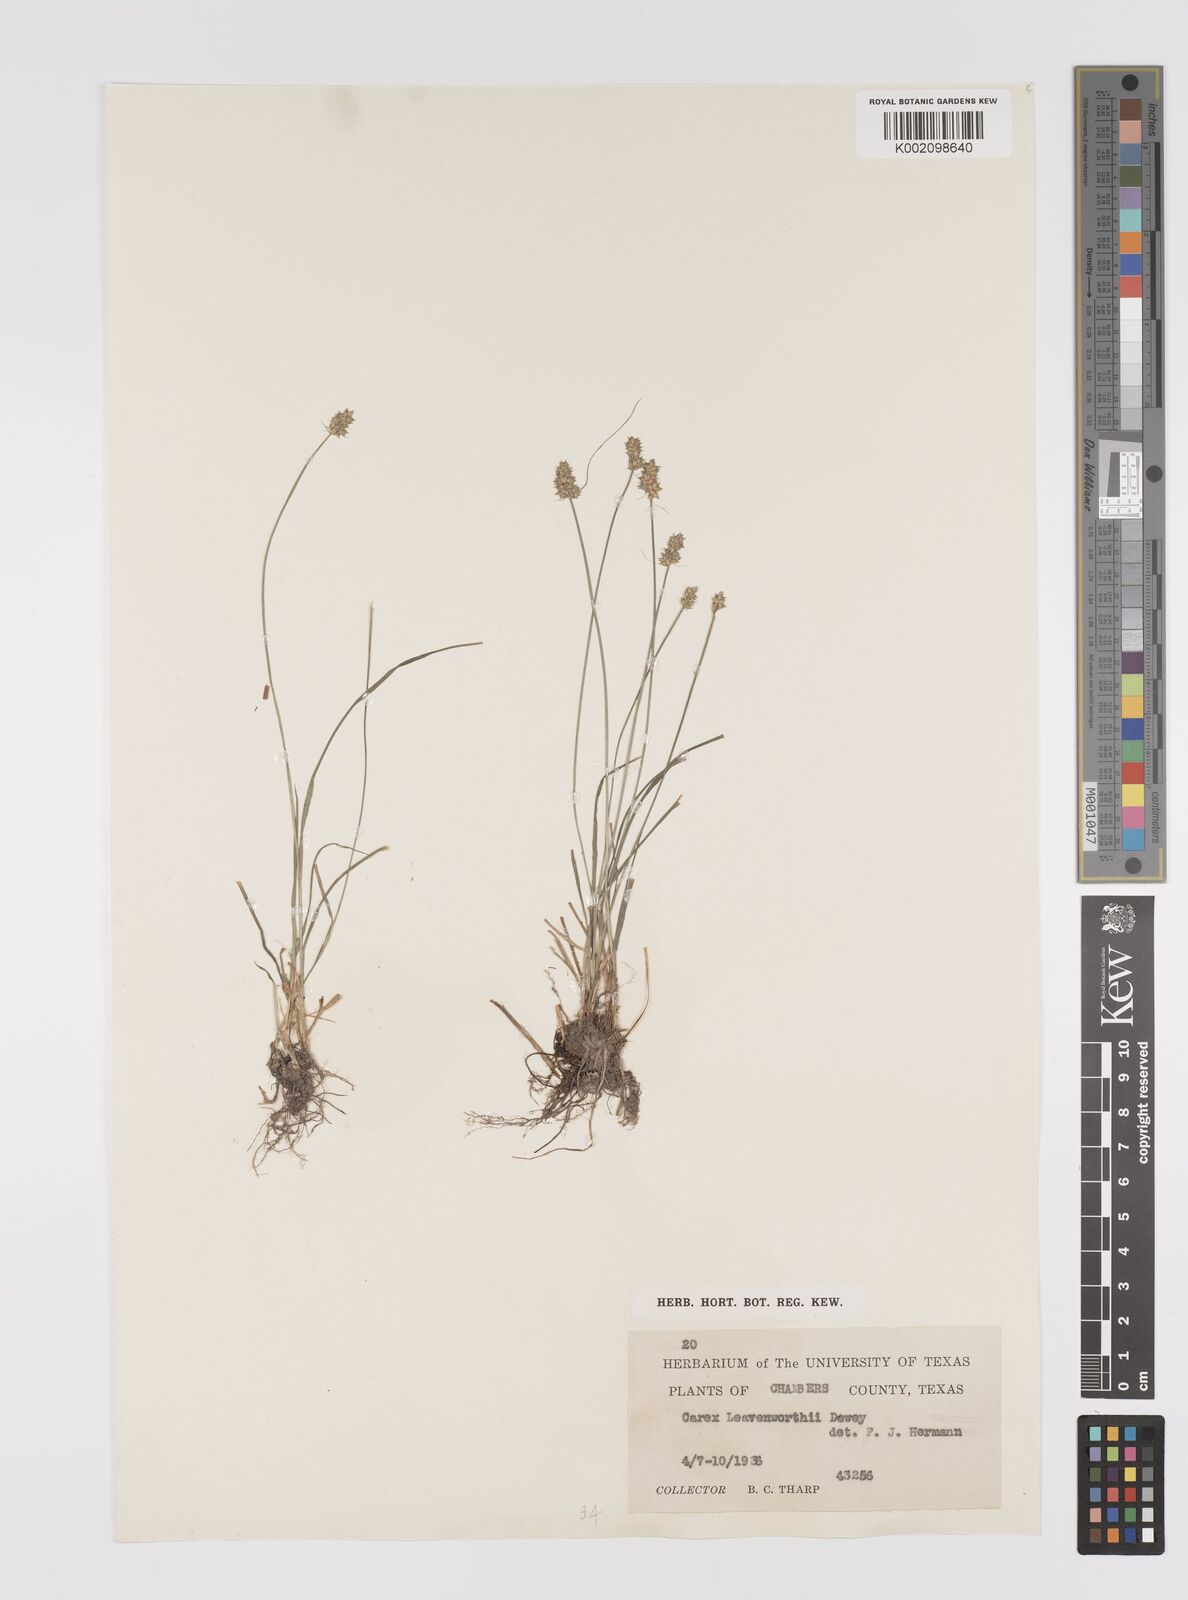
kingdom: Plantae
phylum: Tracheophyta
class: Liliopsida
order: Poales
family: Cyperaceae
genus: Carex
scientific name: Carex leavenworthii
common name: Leavenworth's bracted sedge
